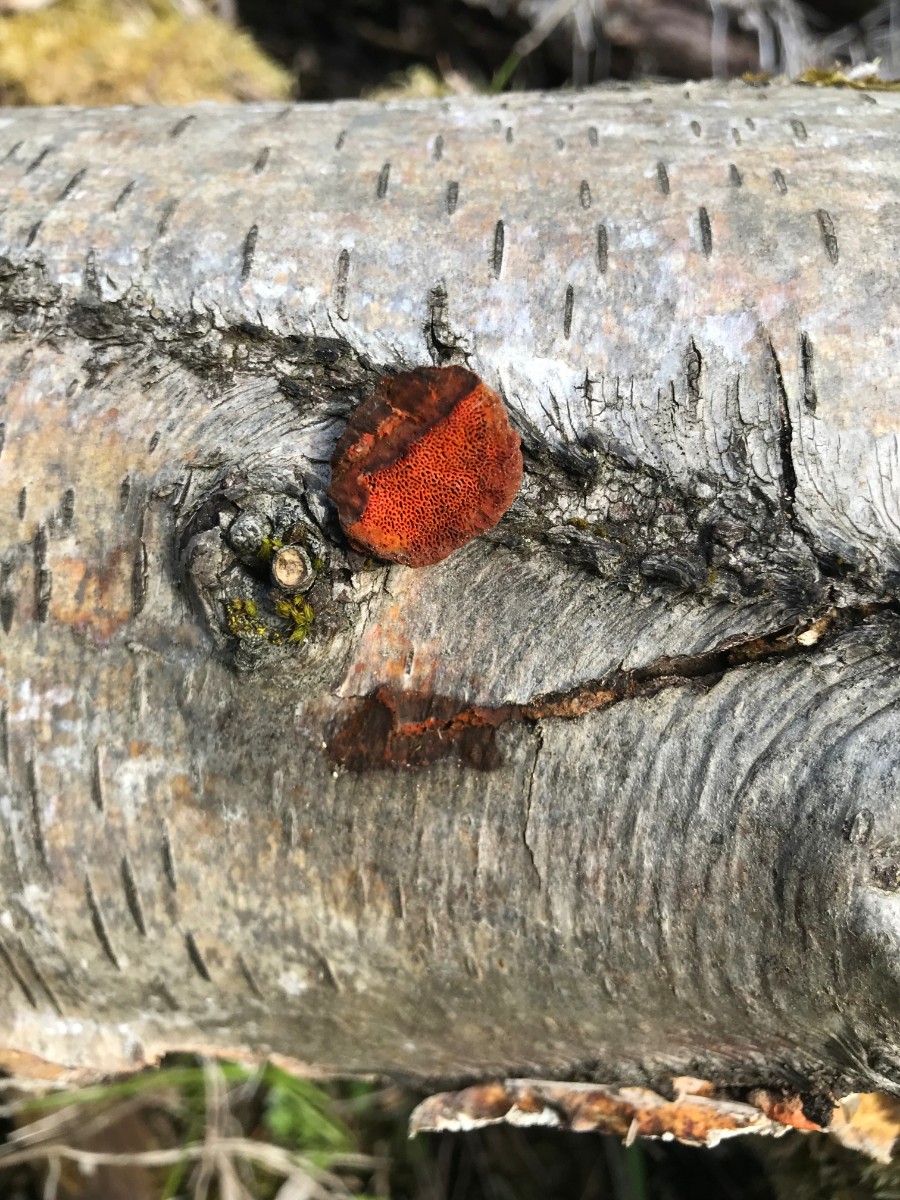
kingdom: Fungi
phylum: Basidiomycota
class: Agaricomycetes
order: Polyporales
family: Polyporaceae
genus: Trametes
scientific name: Trametes cinnabarina
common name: cinnoberporesvamp
